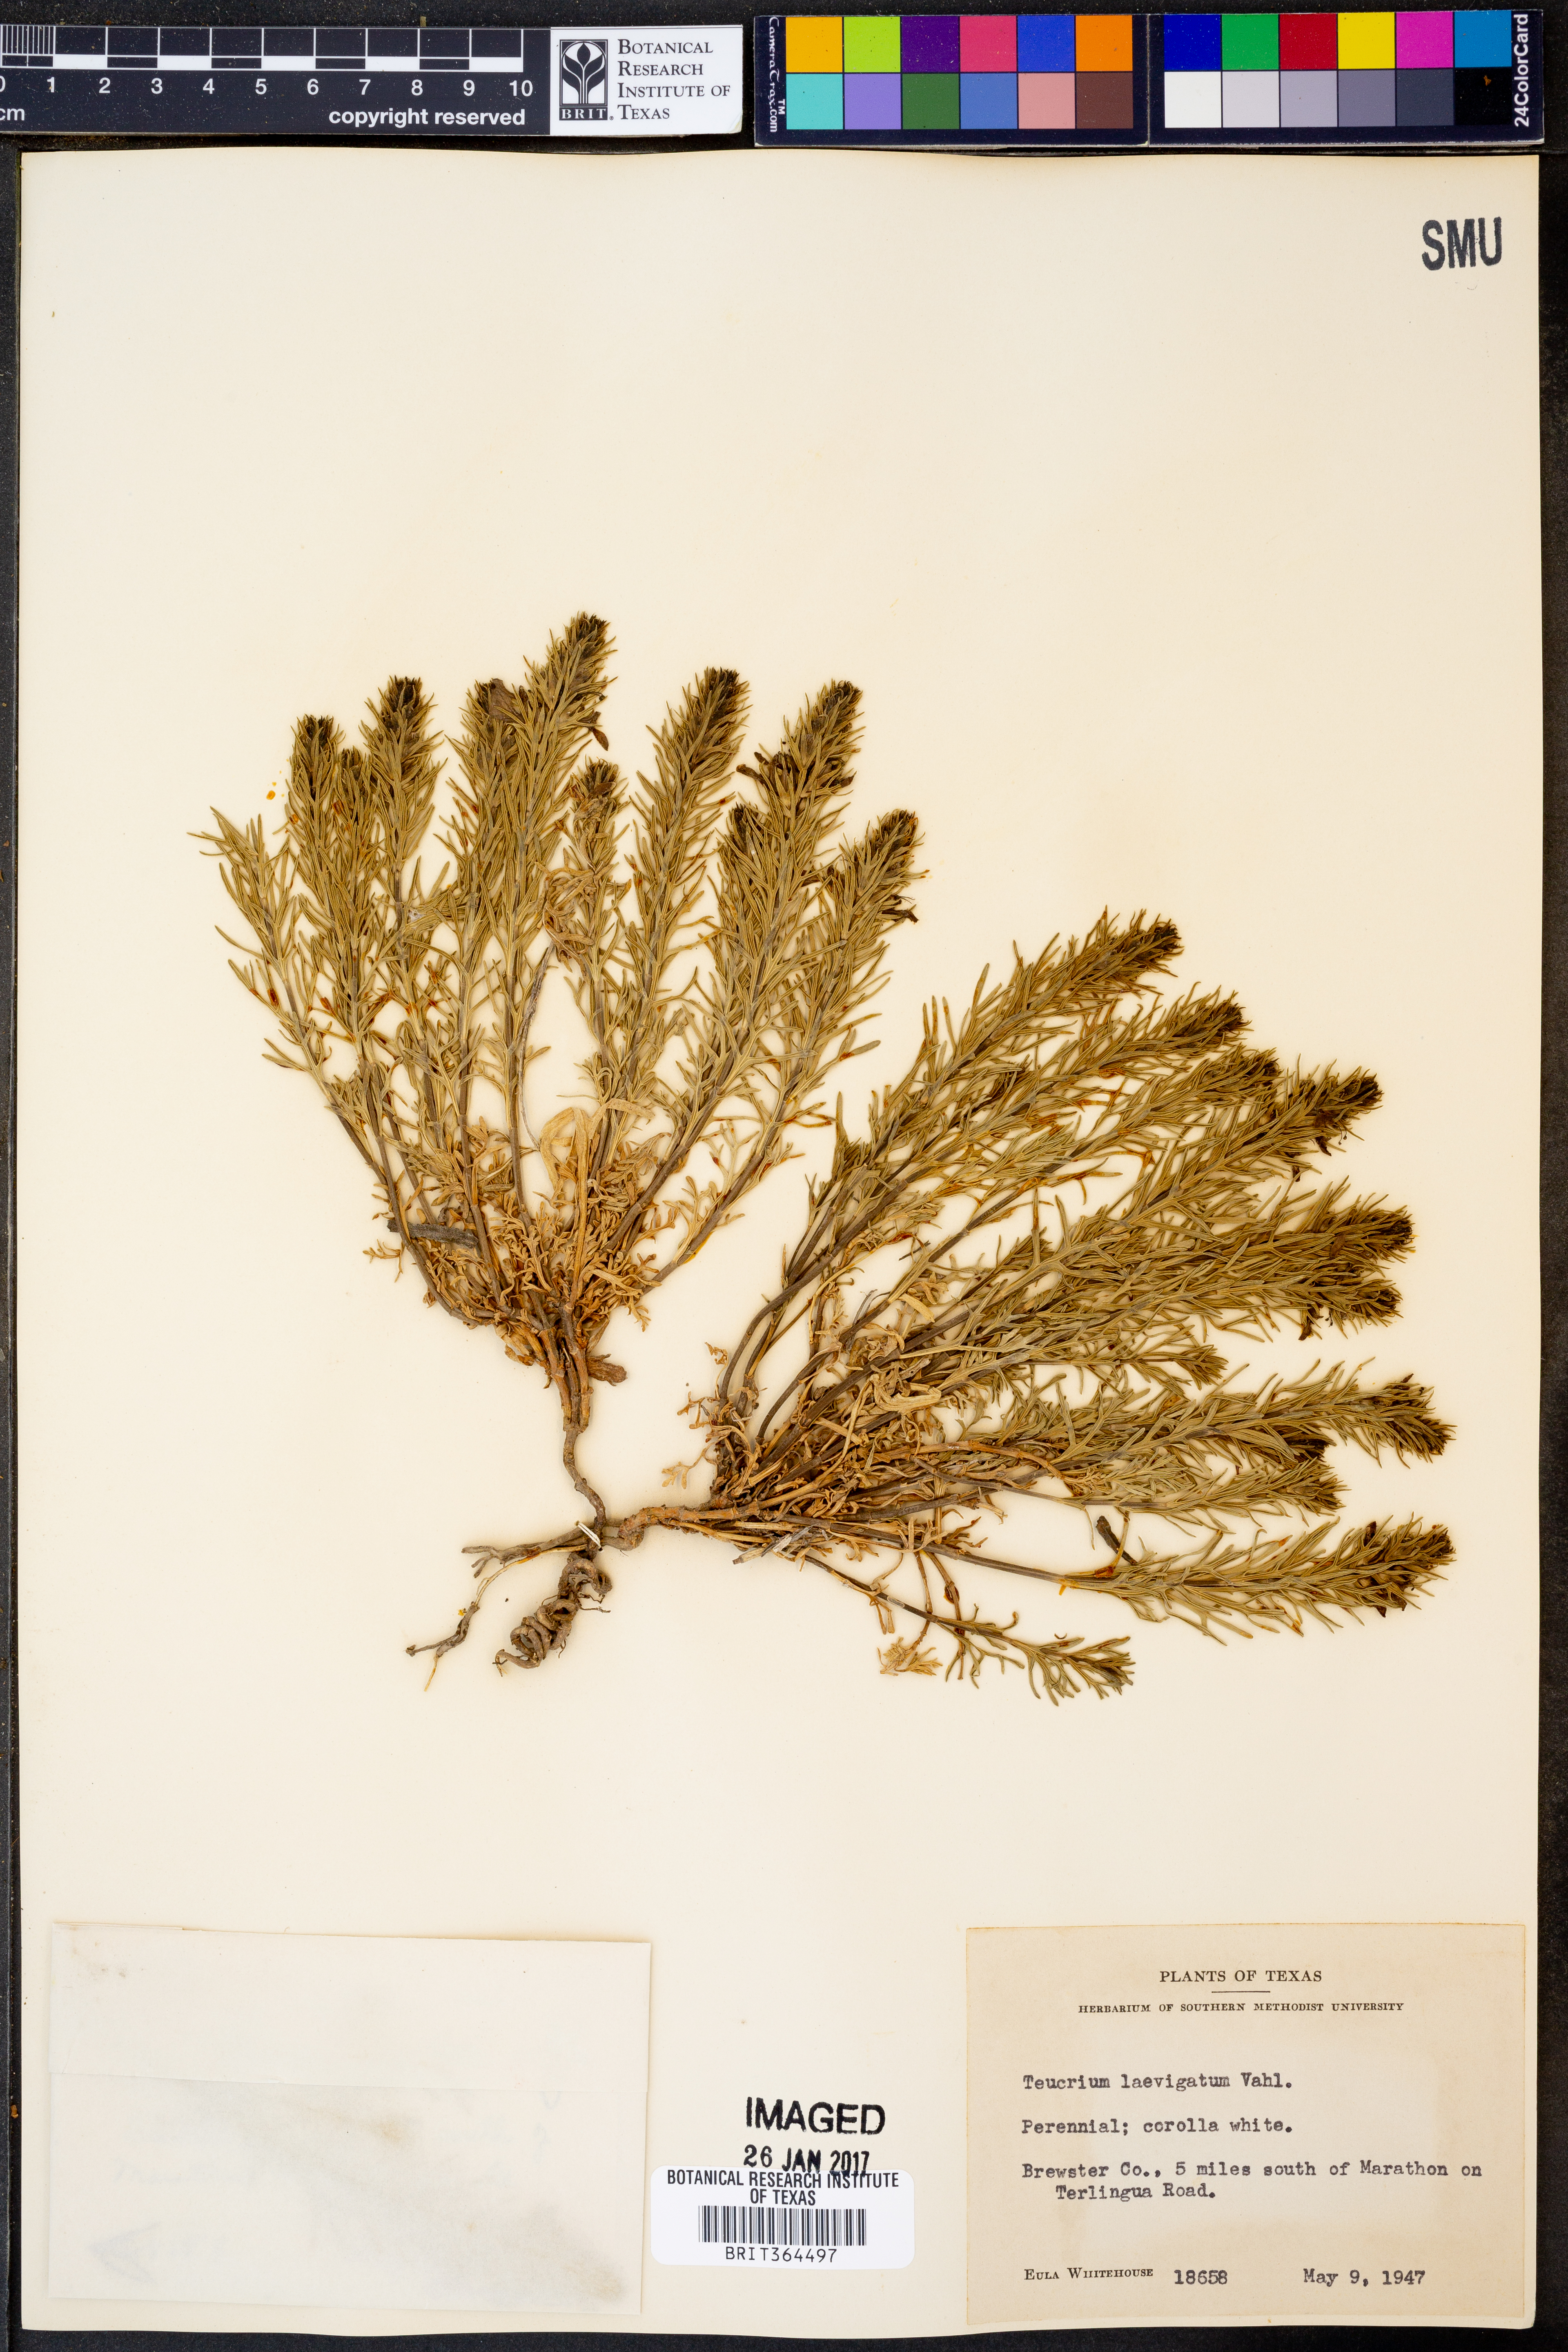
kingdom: Plantae
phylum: Tracheophyta
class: Magnoliopsida
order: Lamiales
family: Lamiaceae
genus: Teucrium
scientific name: Teucrium
